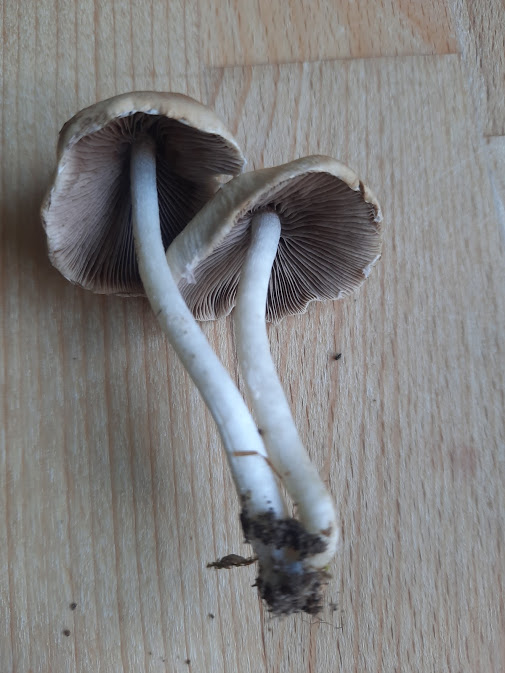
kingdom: Fungi
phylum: Basidiomycota
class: Agaricomycetes
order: Agaricales
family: Psathyrellaceae
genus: Candolleomyces
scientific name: Candolleomyces candolleanus
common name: Candolles mørkhat
